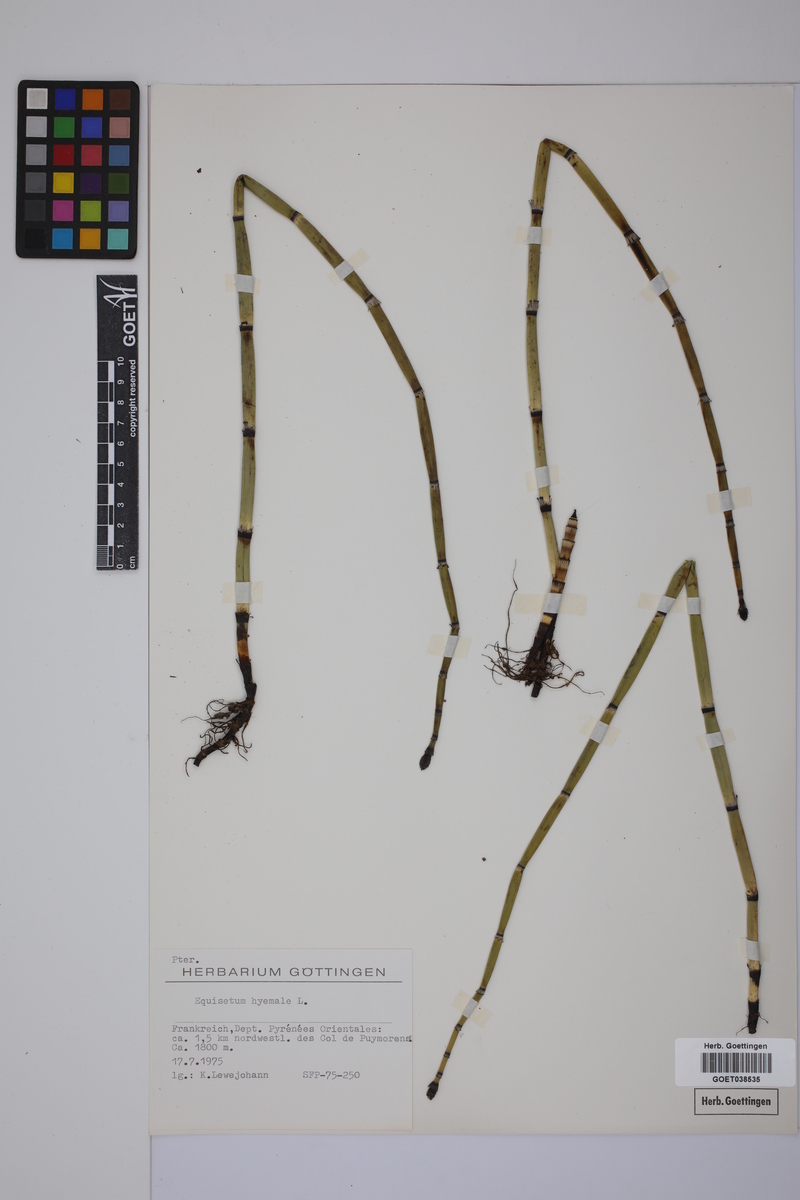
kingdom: Plantae
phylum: Tracheophyta
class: Polypodiopsida
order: Equisetales
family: Equisetaceae
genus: Equisetum
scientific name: Equisetum hyemale
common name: Rough horsetail
